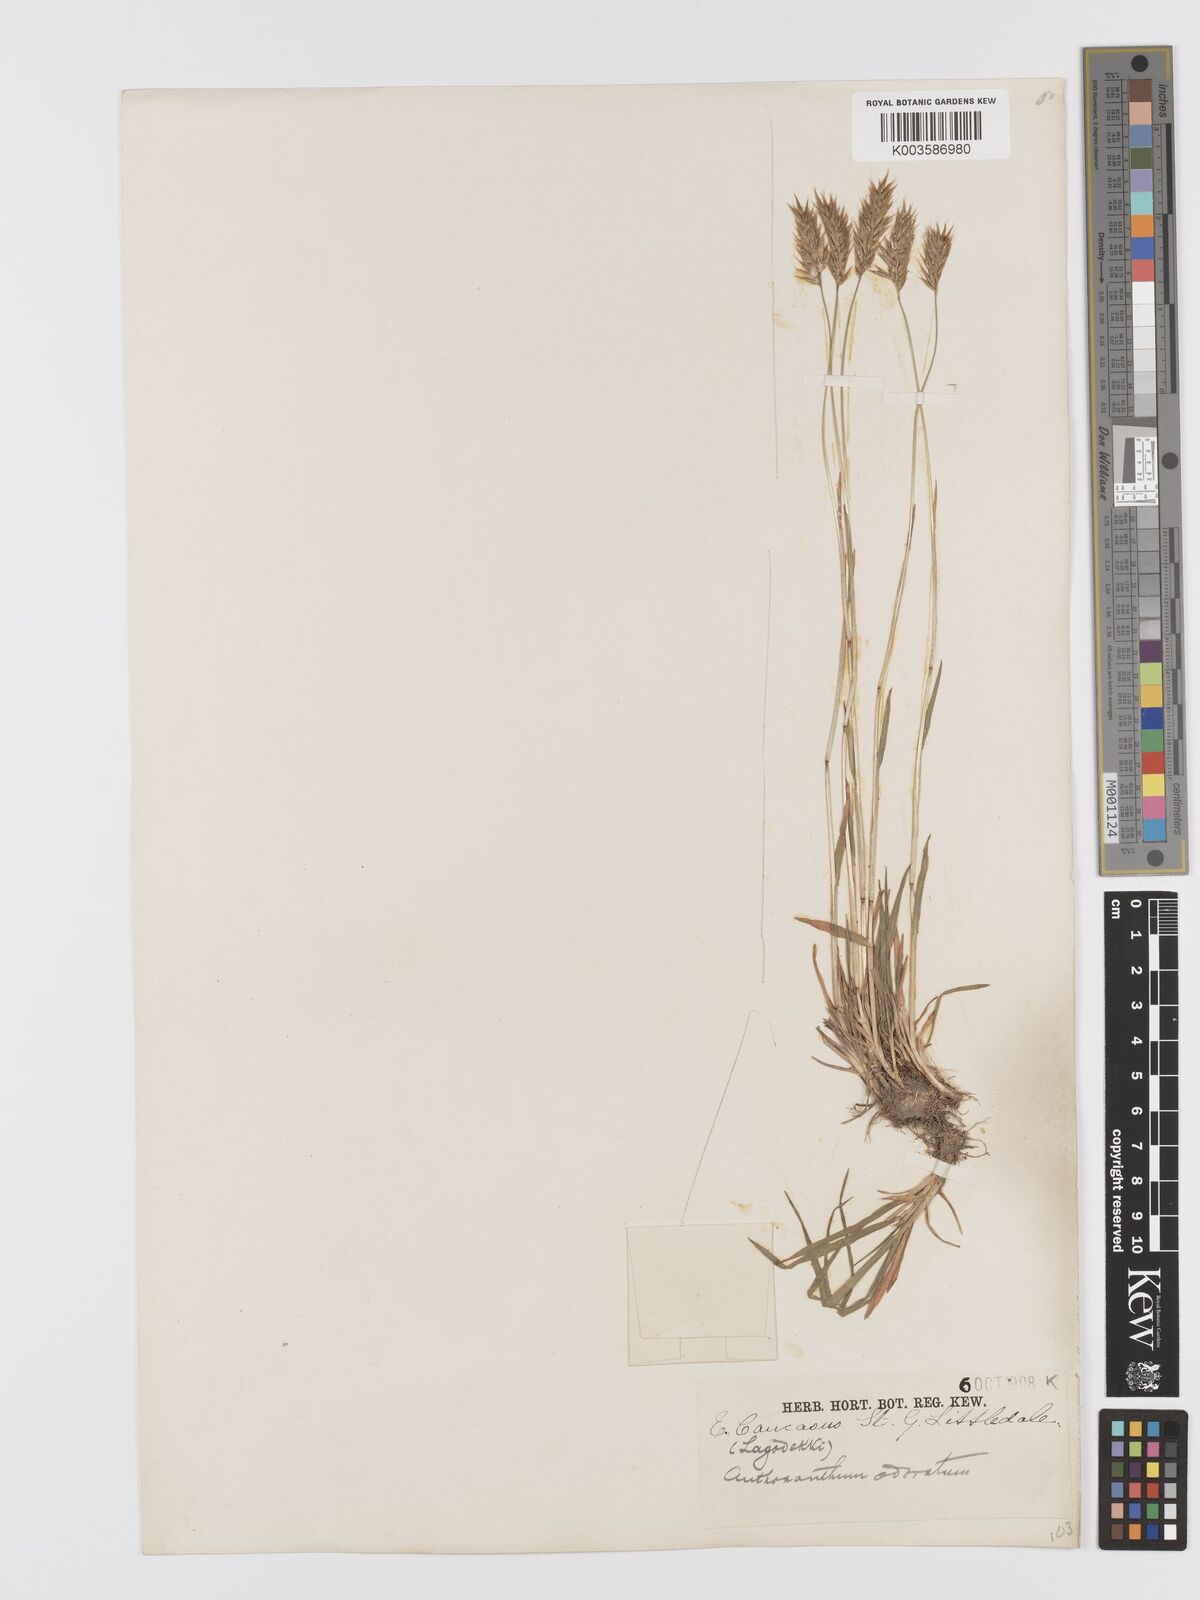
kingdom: Plantae
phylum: Tracheophyta
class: Liliopsida
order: Poales
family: Poaceae
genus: Anthoxanthum
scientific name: Anthoxanthum odoratum
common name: Sweet vernalgrass
